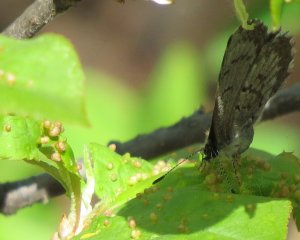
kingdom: Animalia
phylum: Arthropoda
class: Insecta
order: Lepidoptera
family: Lycaenidae
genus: Celastrina
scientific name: Celastrina
